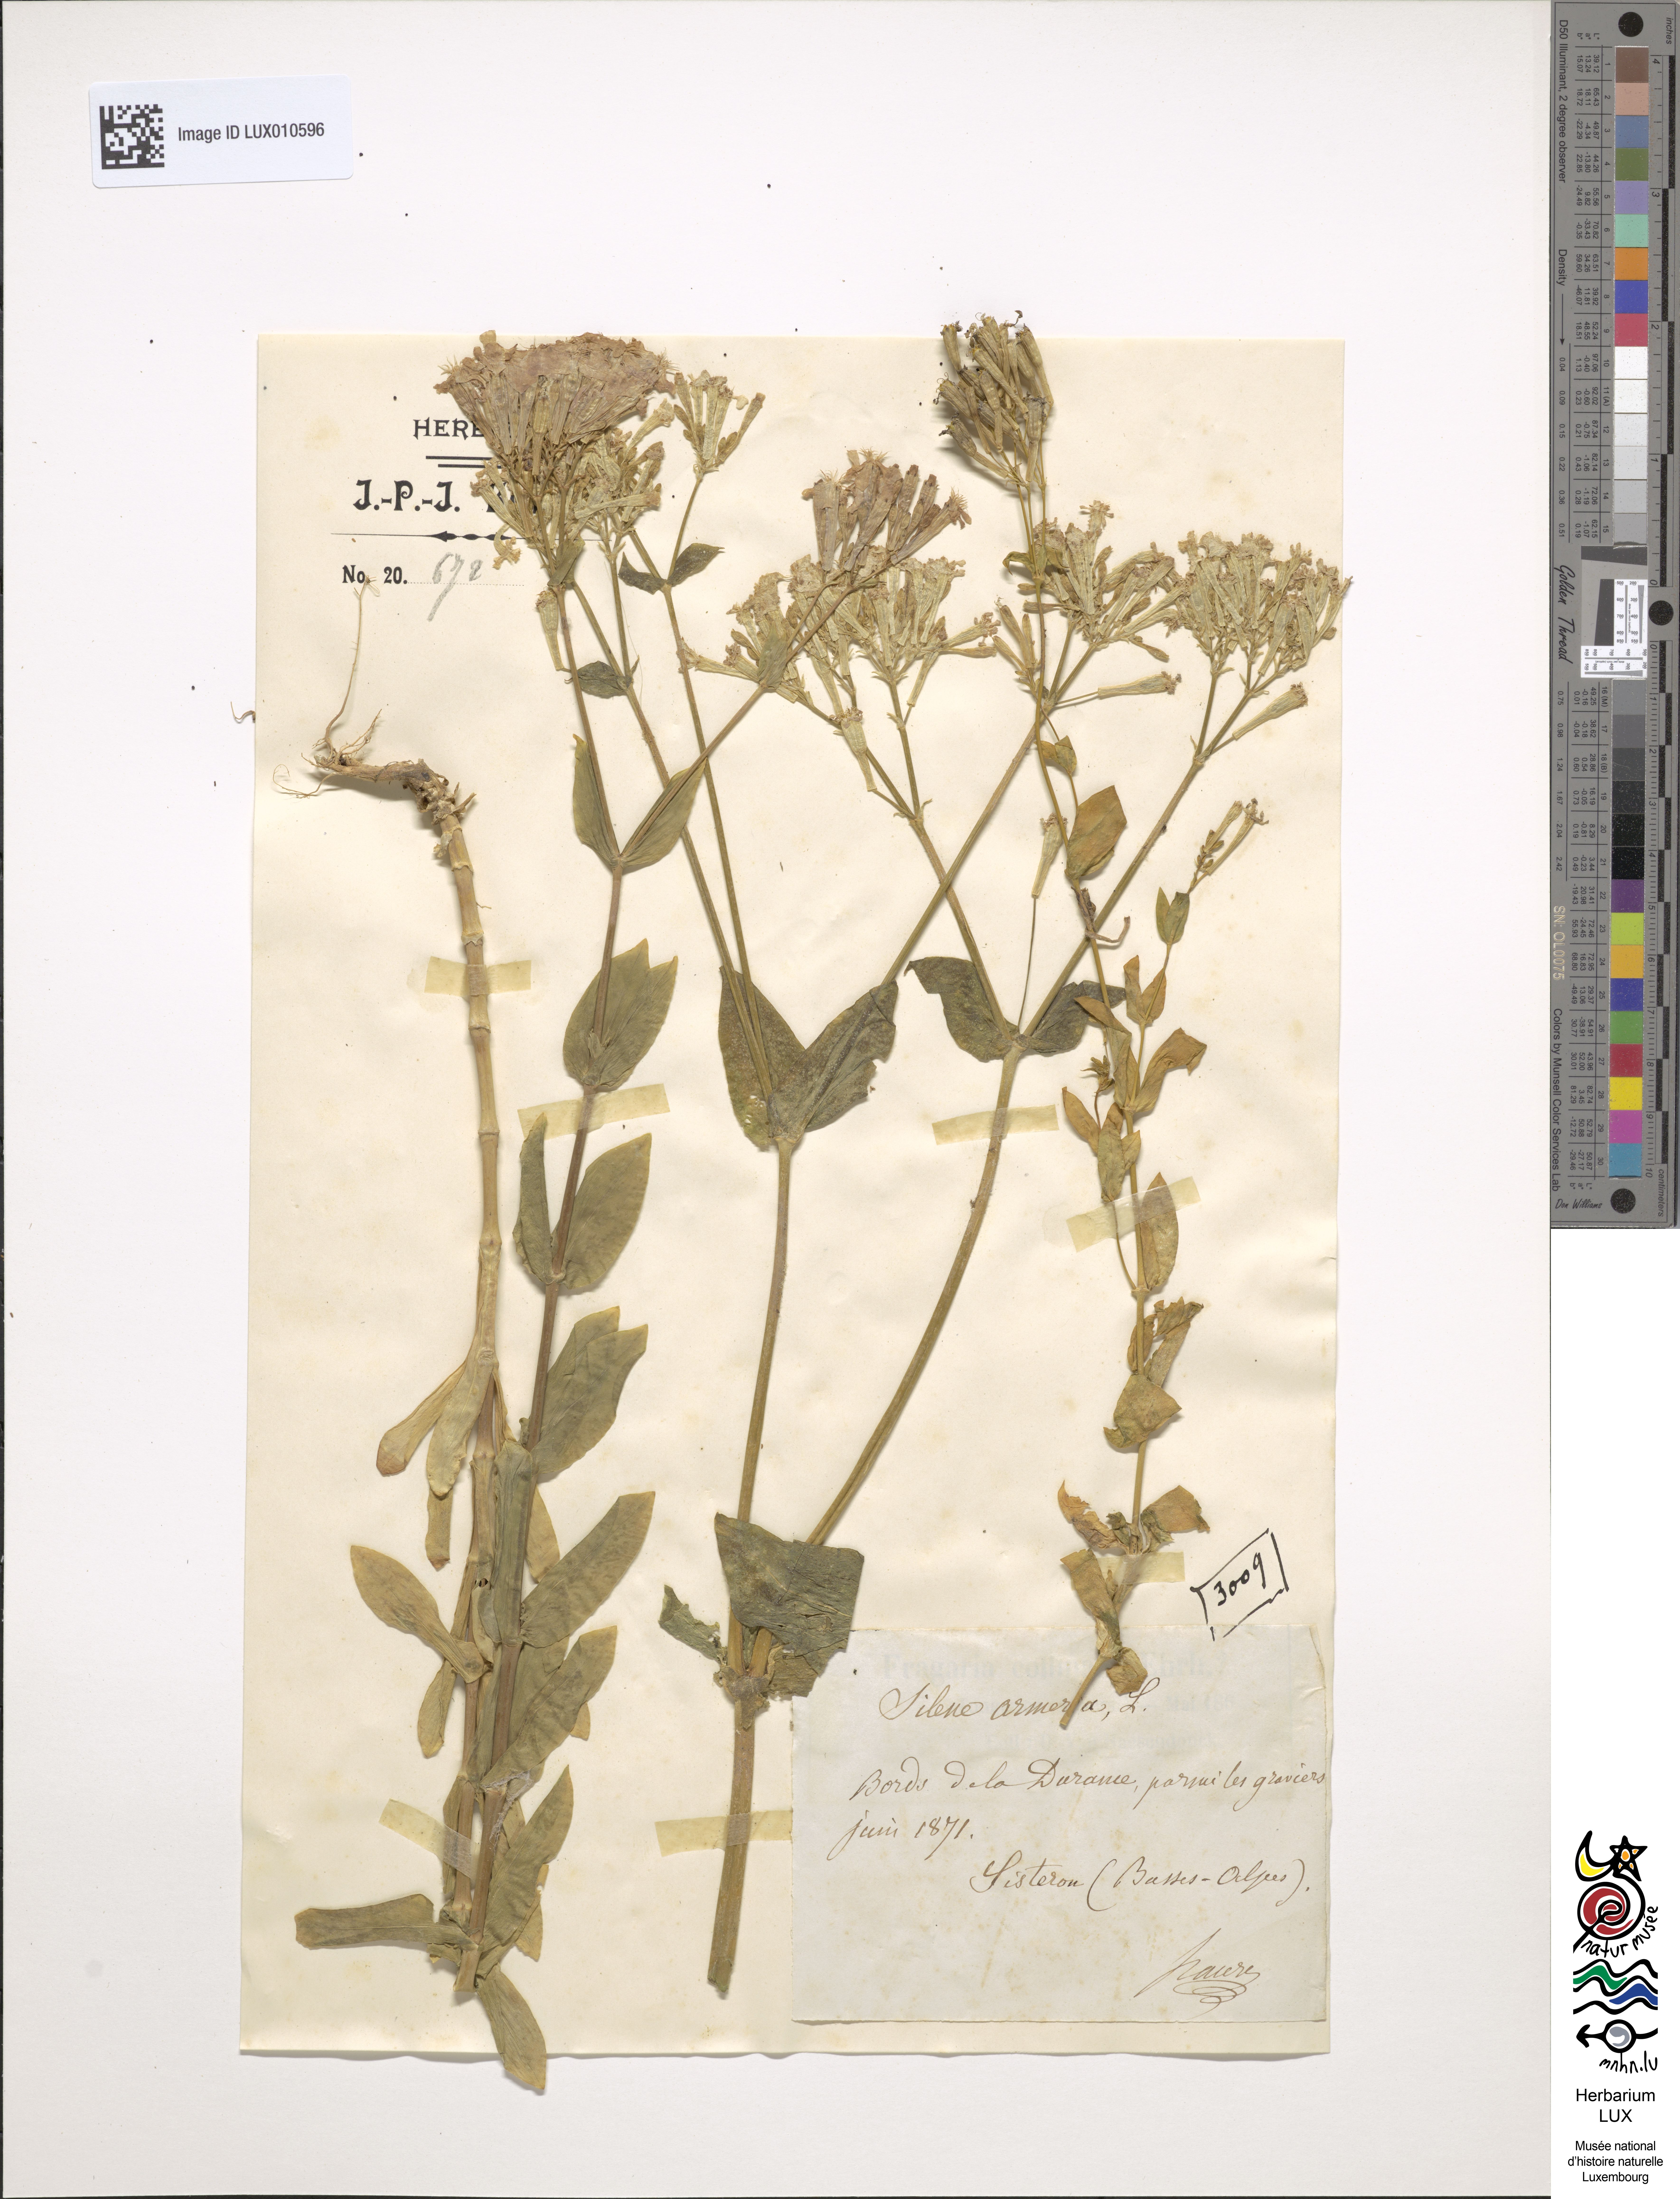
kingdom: Plantae
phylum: Tracheophyta
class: Magnoliopsida
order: Caryophyllales
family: Caryophyllaceae
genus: Atocion
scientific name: Atocion armeria
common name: Sweet william catchfly
